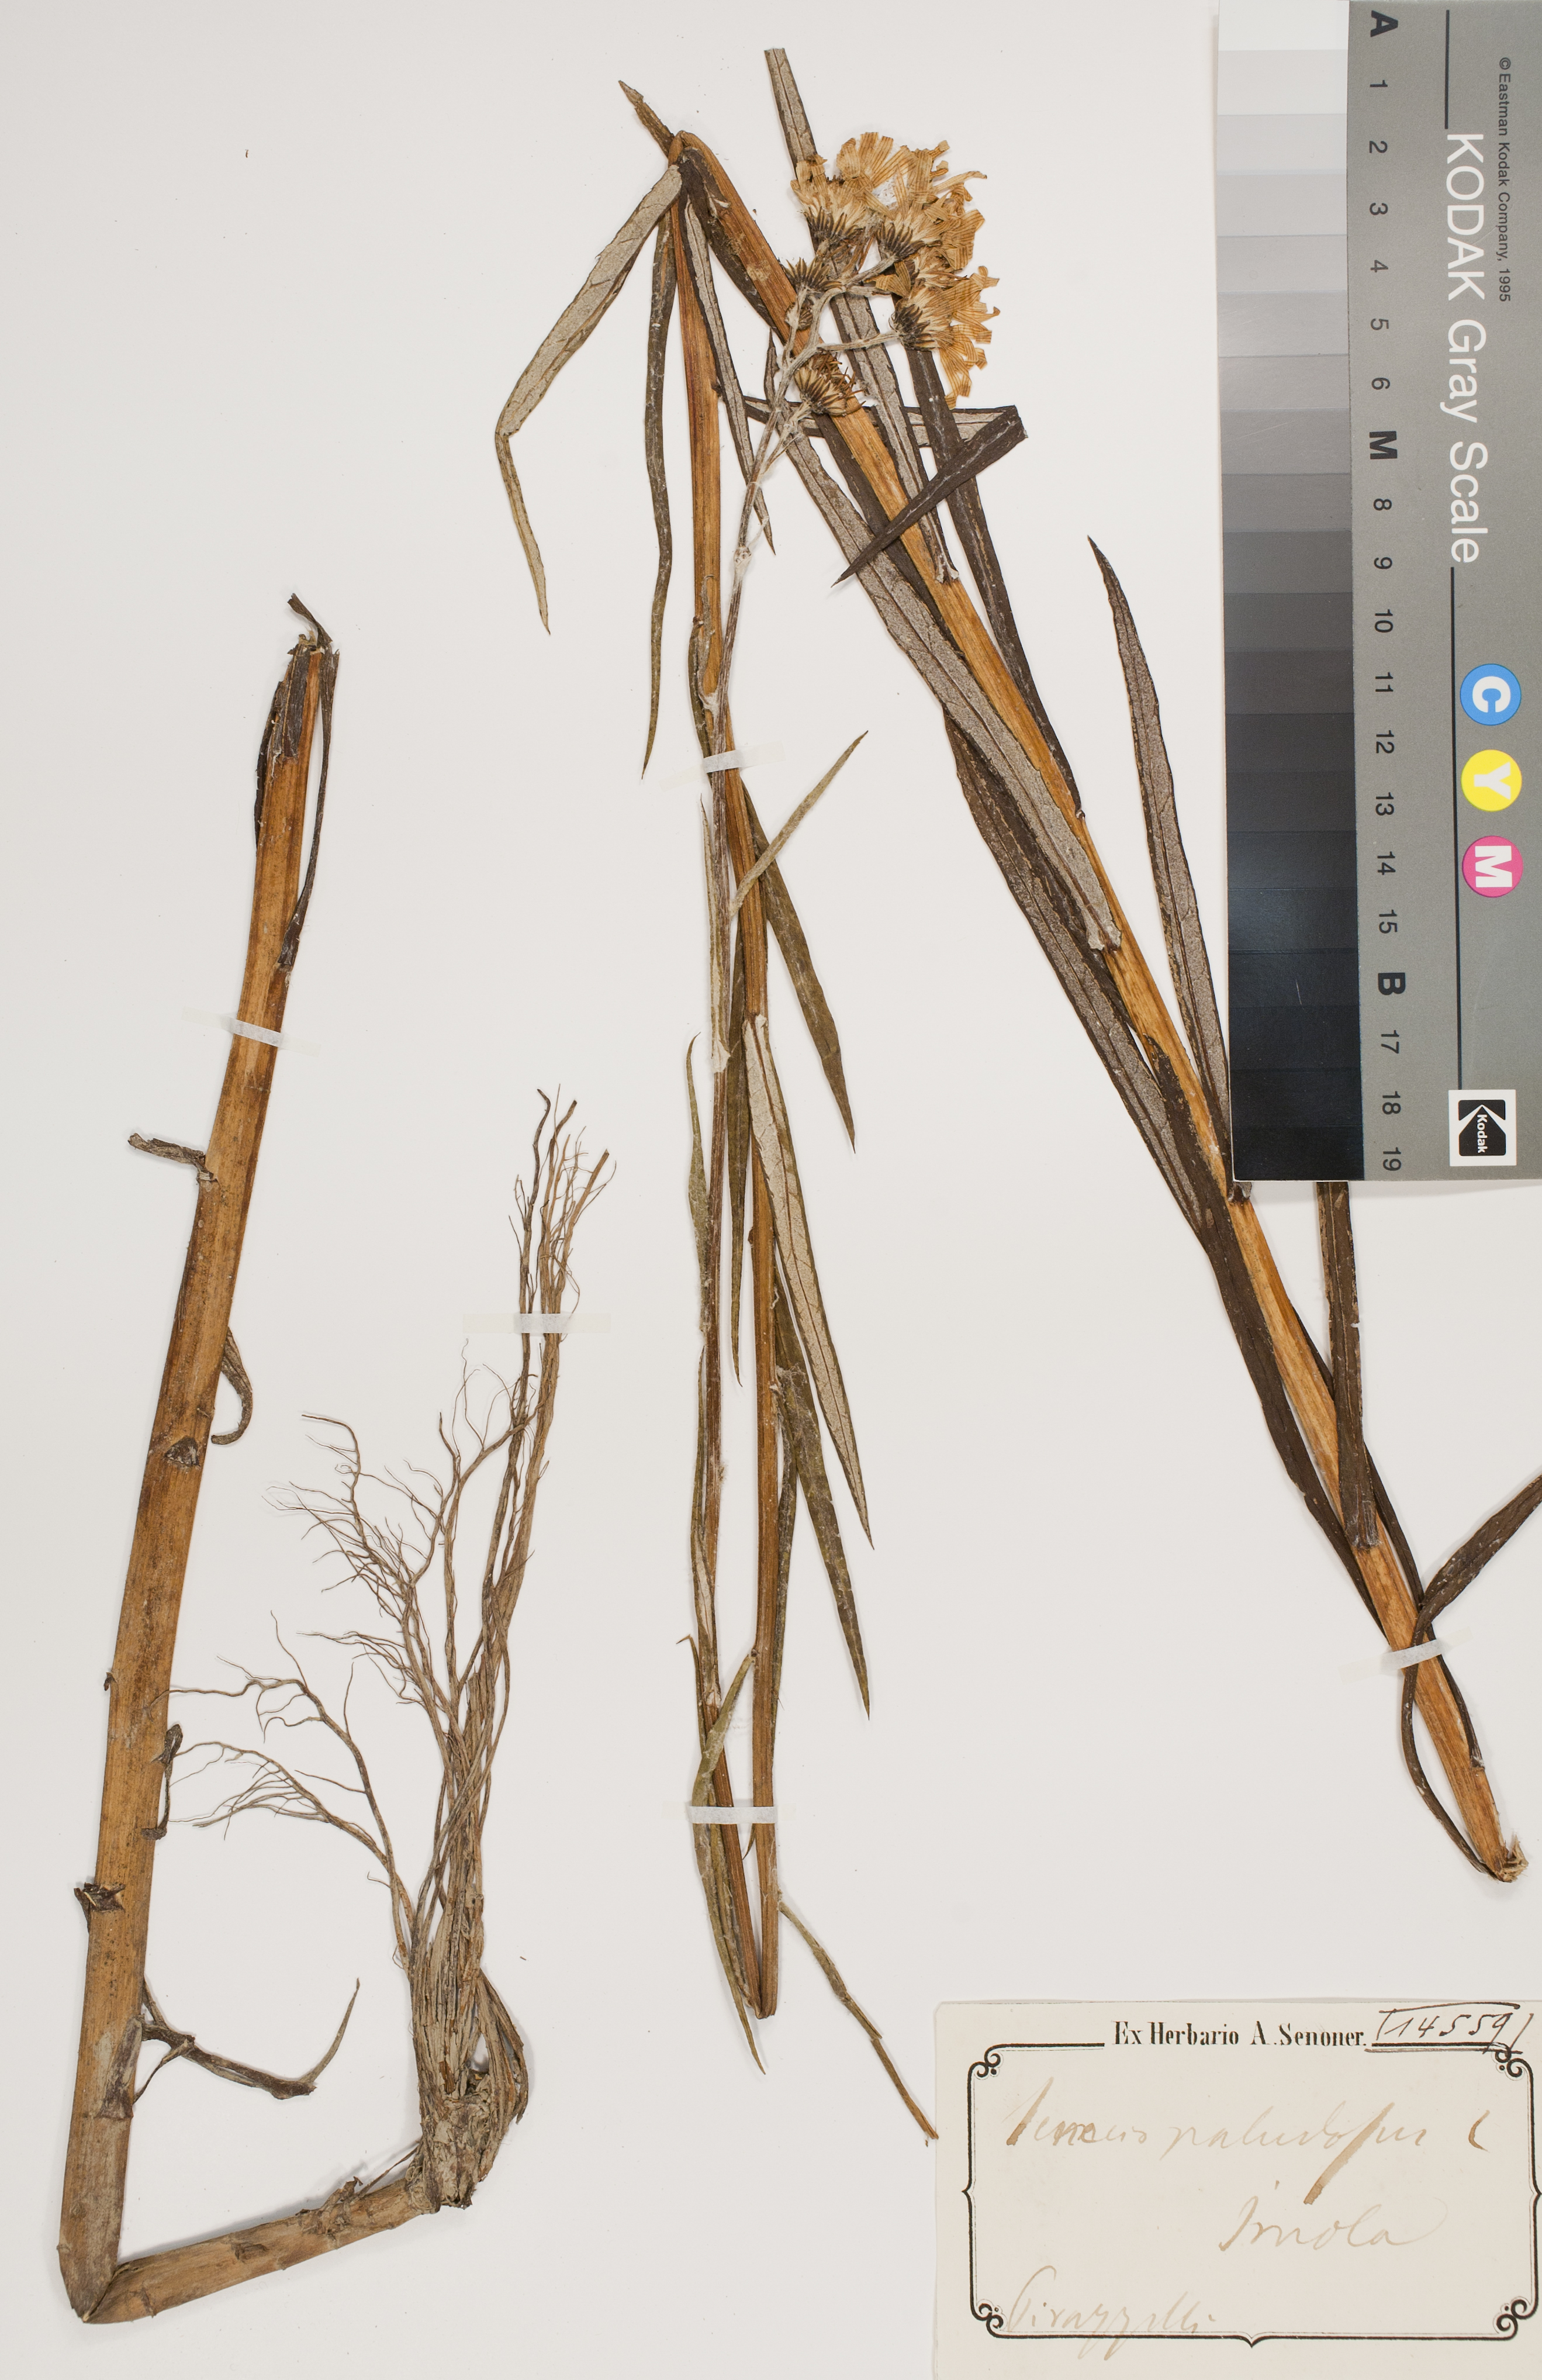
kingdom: Plantae
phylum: Tracheophyta
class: Magnoliopsida
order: Asterales
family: Asteraceae
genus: Jacobaea
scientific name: Jacobaea paludosa
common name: Fen ragwort
